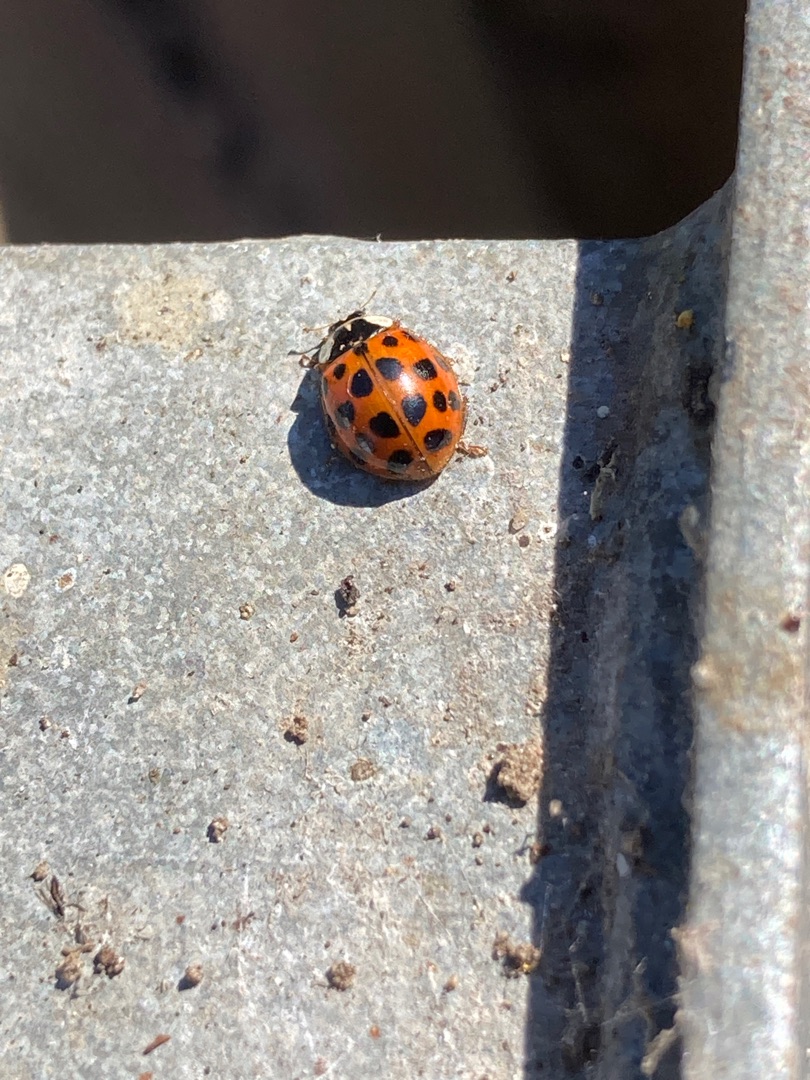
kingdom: Animalia
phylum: Arthropoda
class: Insecta
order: Coleoptera
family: Coccinellidae
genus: Harmonia
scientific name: Harmonia axyridis
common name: Harlekinmariehøne
